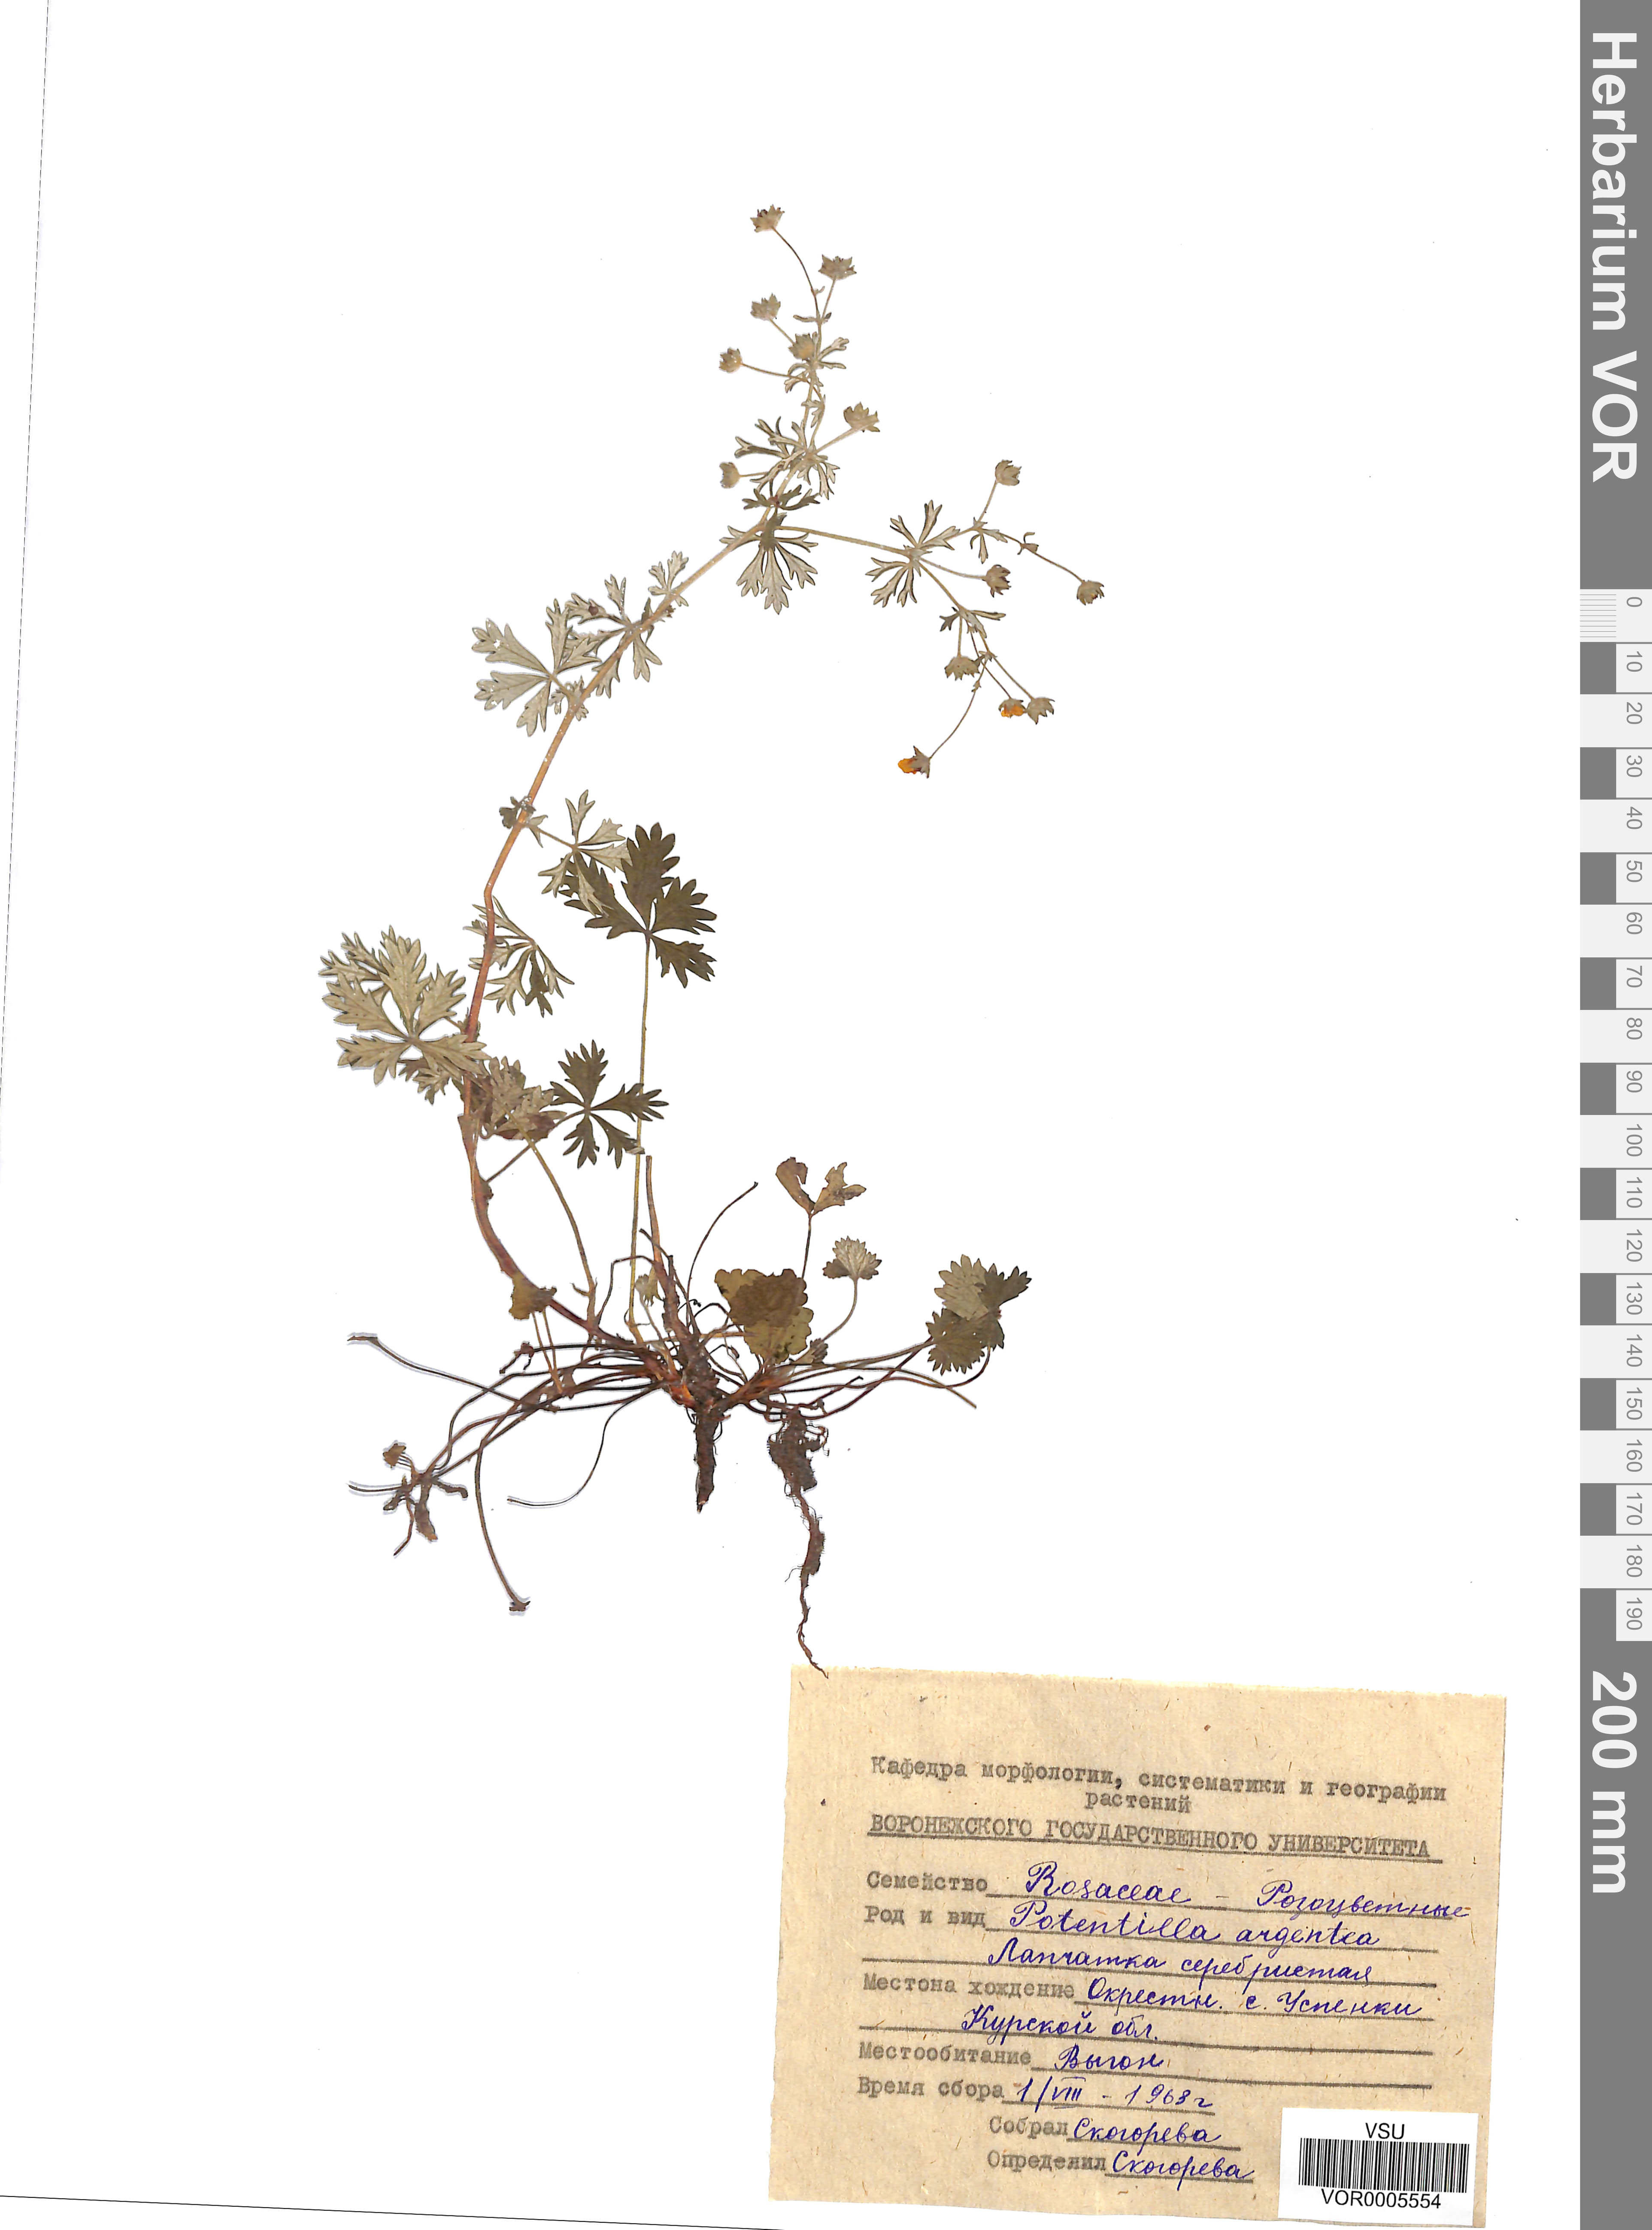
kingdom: Plantae
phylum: Tracheophyta
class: Magnoliopsida
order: Rosales
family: Rosaceae
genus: Potentilla
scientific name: Potentilla argentea
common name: Hoary cinquefoil
